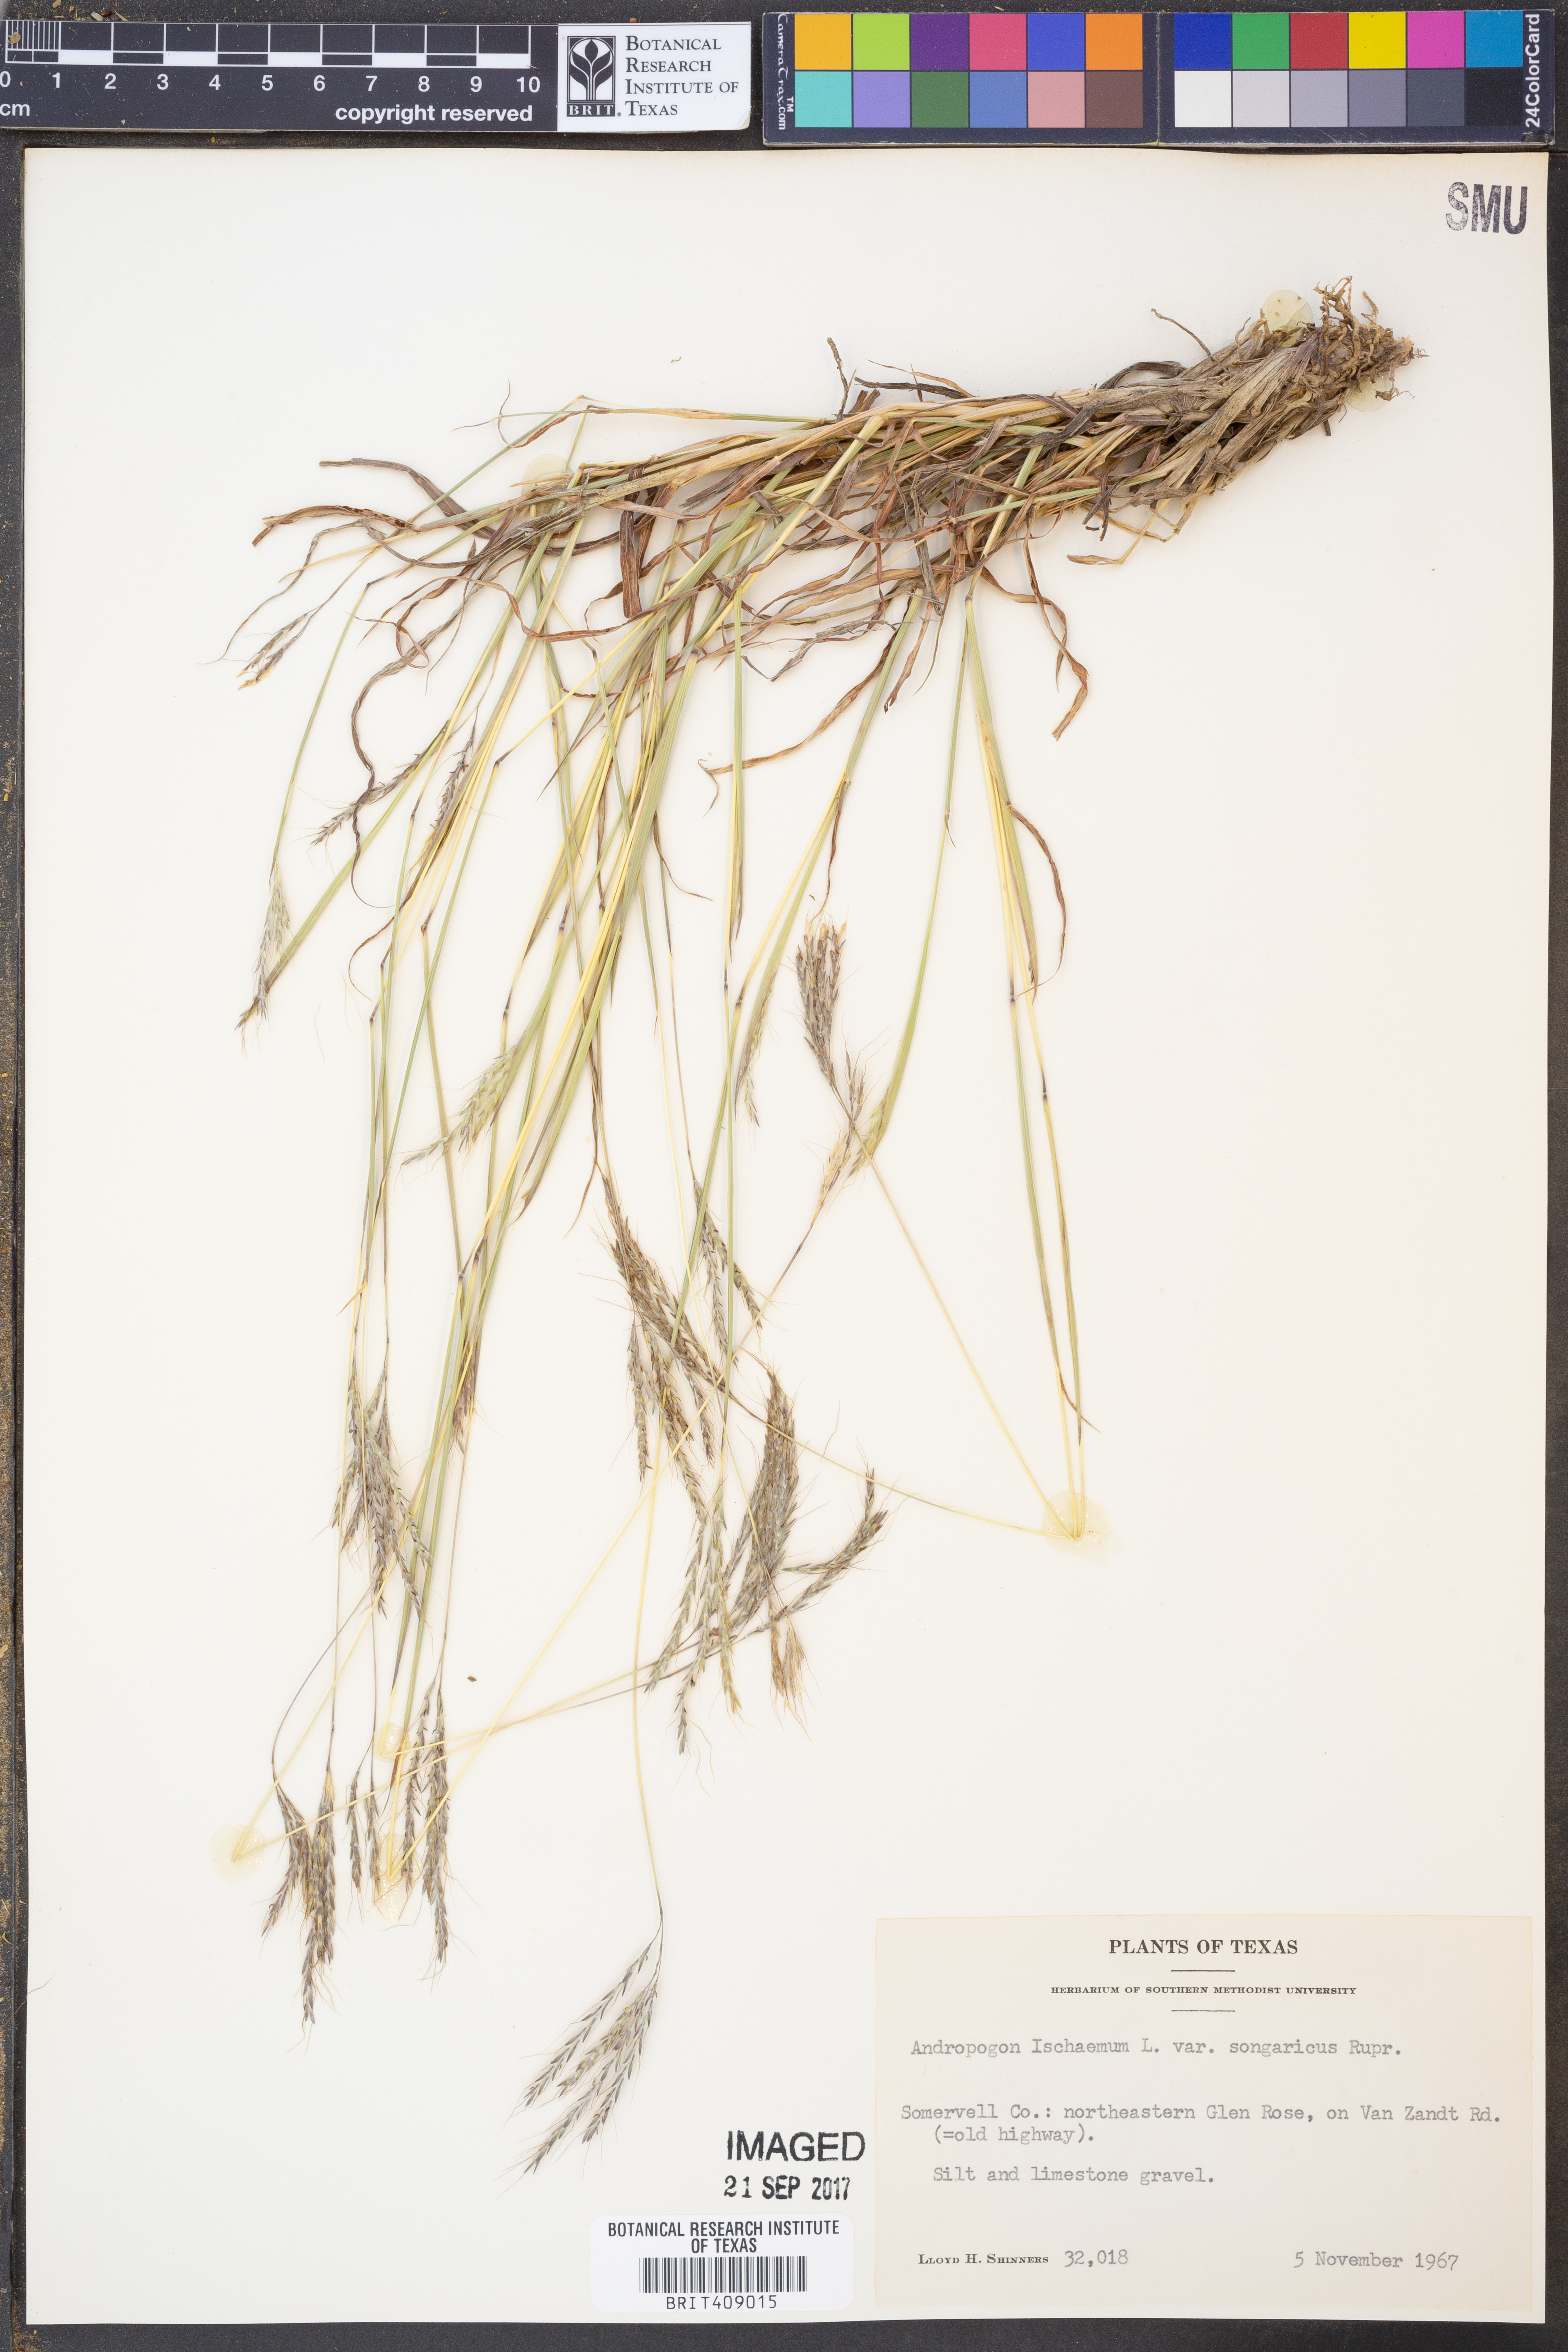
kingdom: Plantae
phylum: Tracheophyta
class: Liliopsida
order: Poales
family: Poaceae
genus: Bothriochloa
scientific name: Bothriochloa ischaemum
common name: Yellow bluestem
